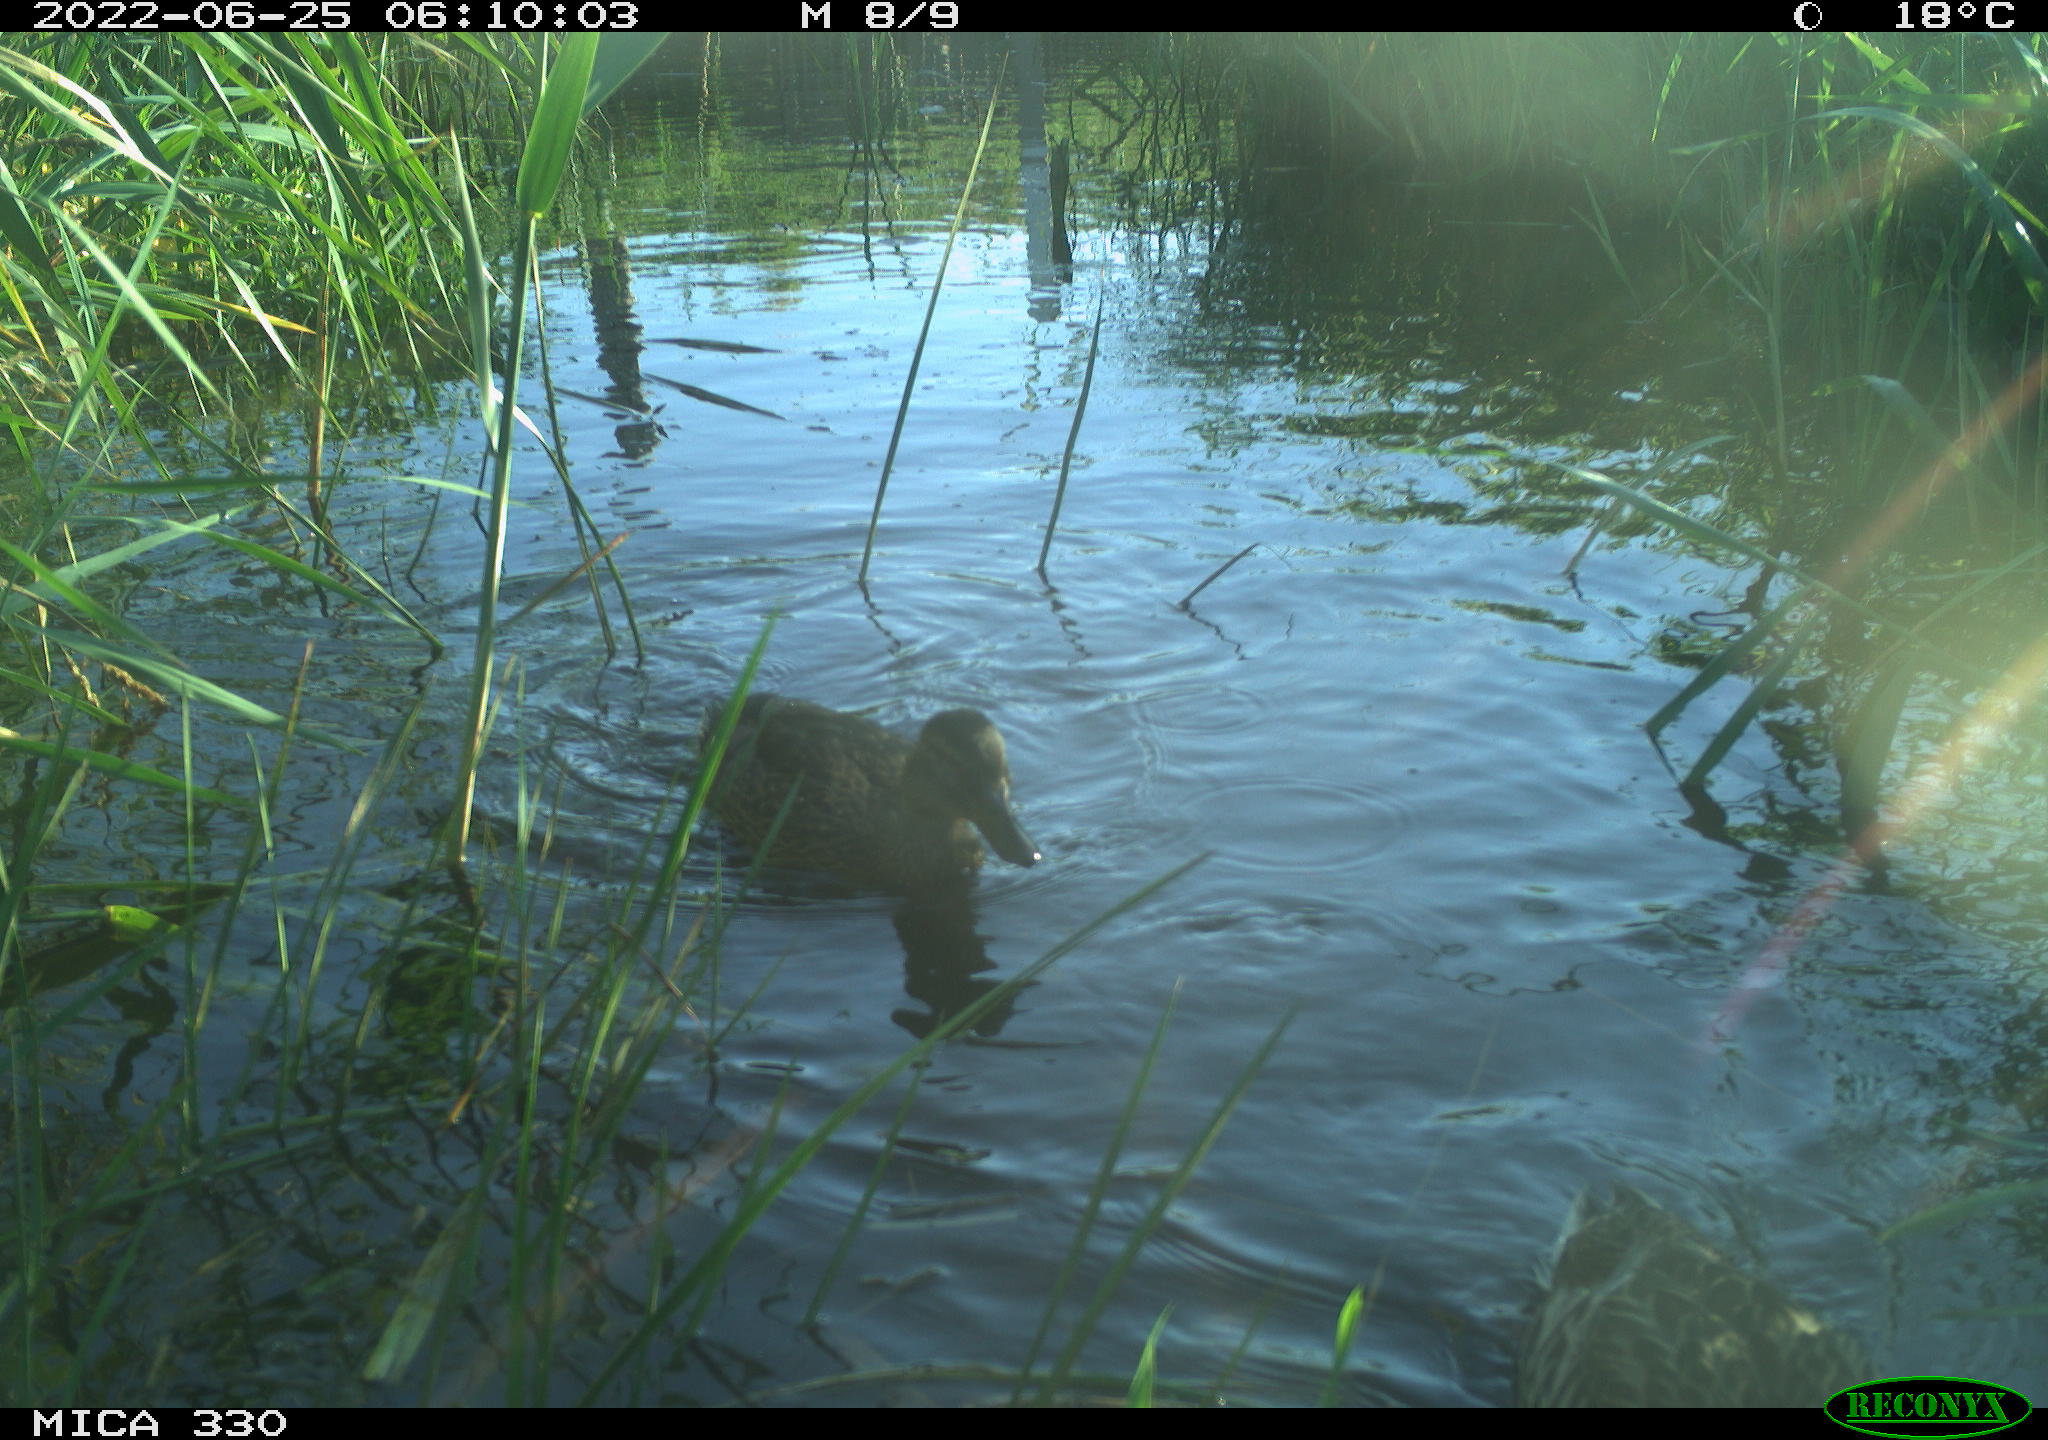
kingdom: Animalia
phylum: Chordata
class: Aves
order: Anseriformes
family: Anatidae
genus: Mareca
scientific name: Mareca strepera
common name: Gadwall
